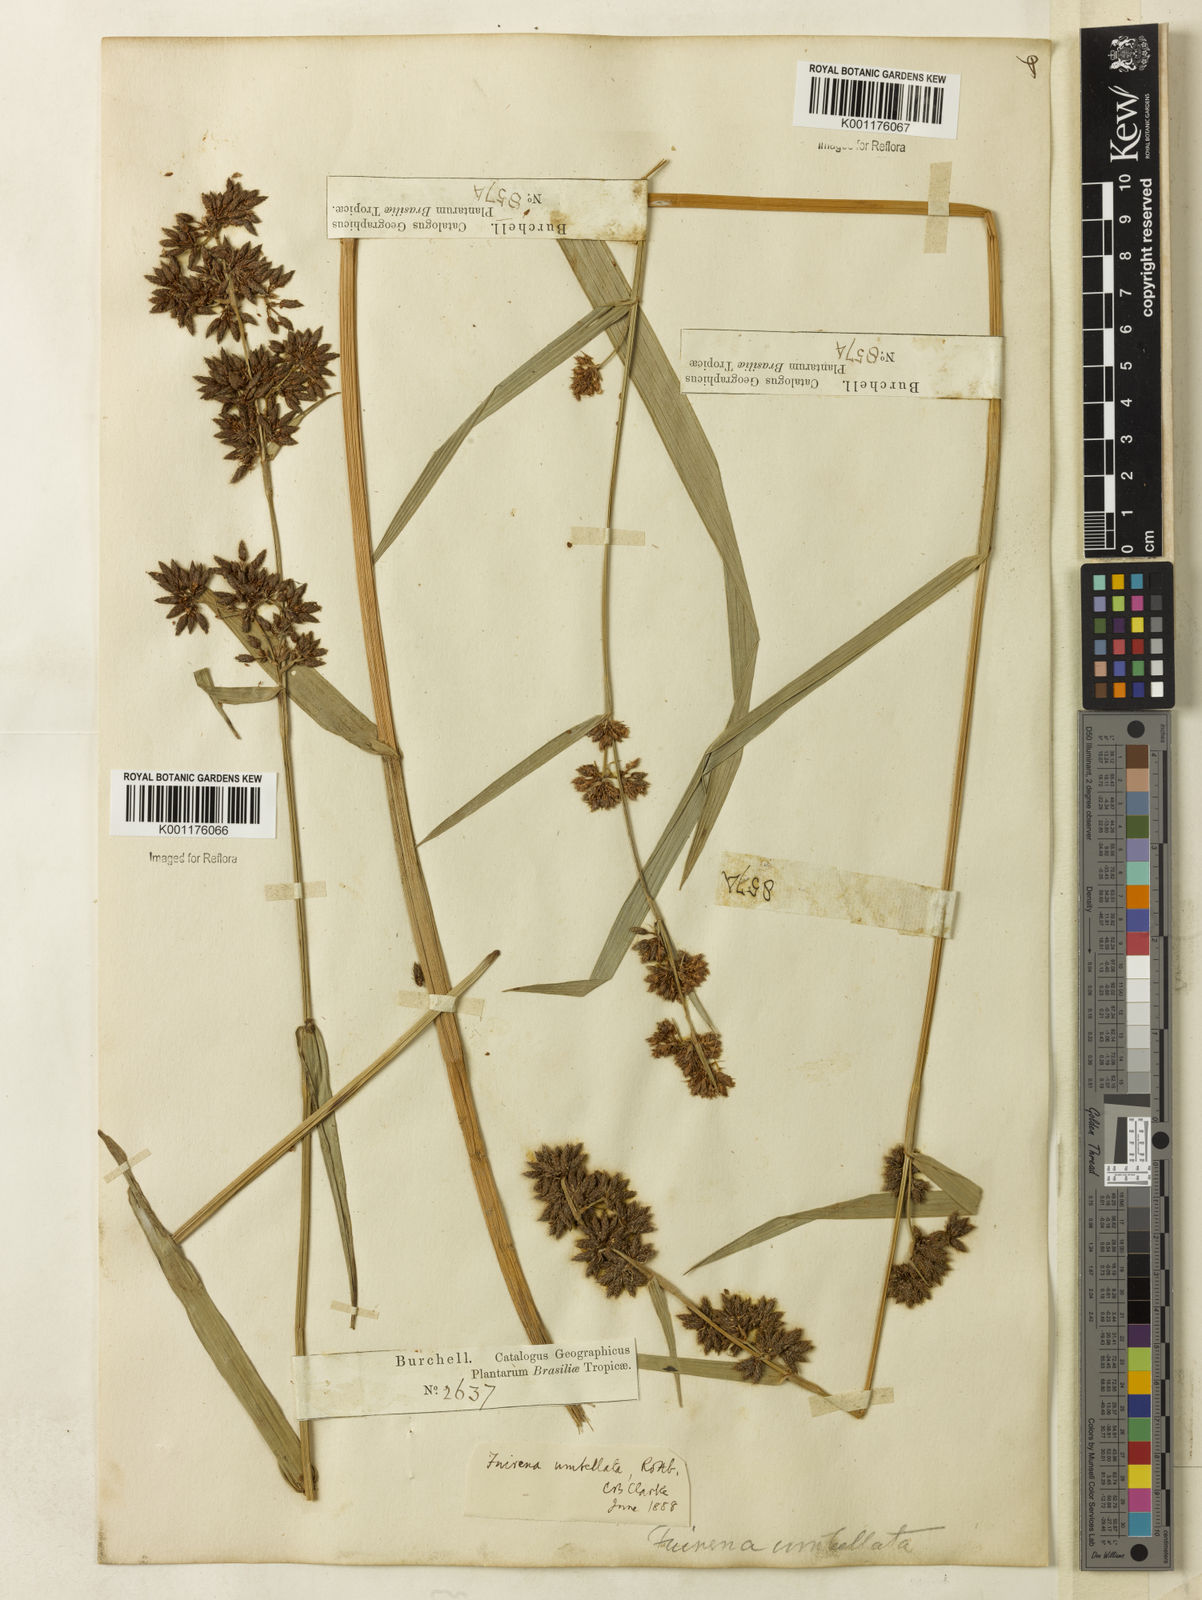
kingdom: Plantae
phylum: Tracheophyta
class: Liliopsida
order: Poales
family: Cyperaceae
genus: Fuirena
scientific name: Fuirena umbellata
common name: Yefen
